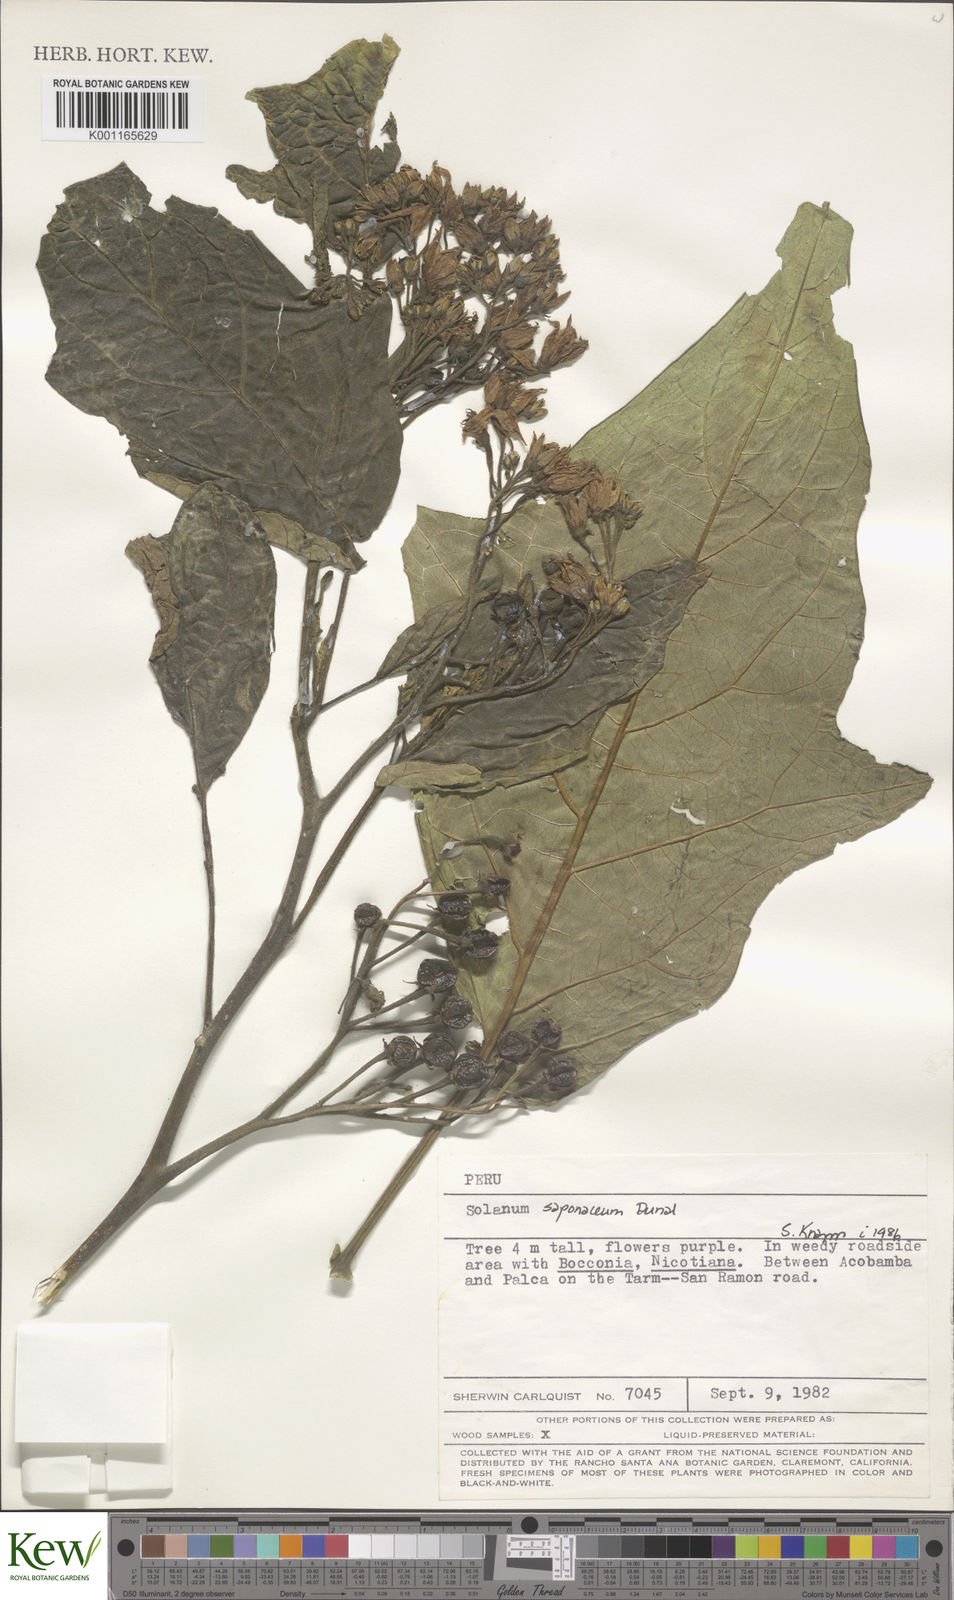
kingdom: Plantae
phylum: Tracheophyta
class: Magnoliopsida
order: Solanales
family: Solanaceae
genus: Solanum
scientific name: Solanum saponaceum
